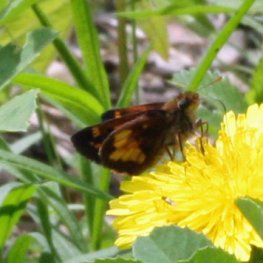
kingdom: Animalia
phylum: Arthropoda
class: Insecta
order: Lepidoptera
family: Hesperiidae
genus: Lon
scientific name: Lon hobomok
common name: Hobomok Skipper
